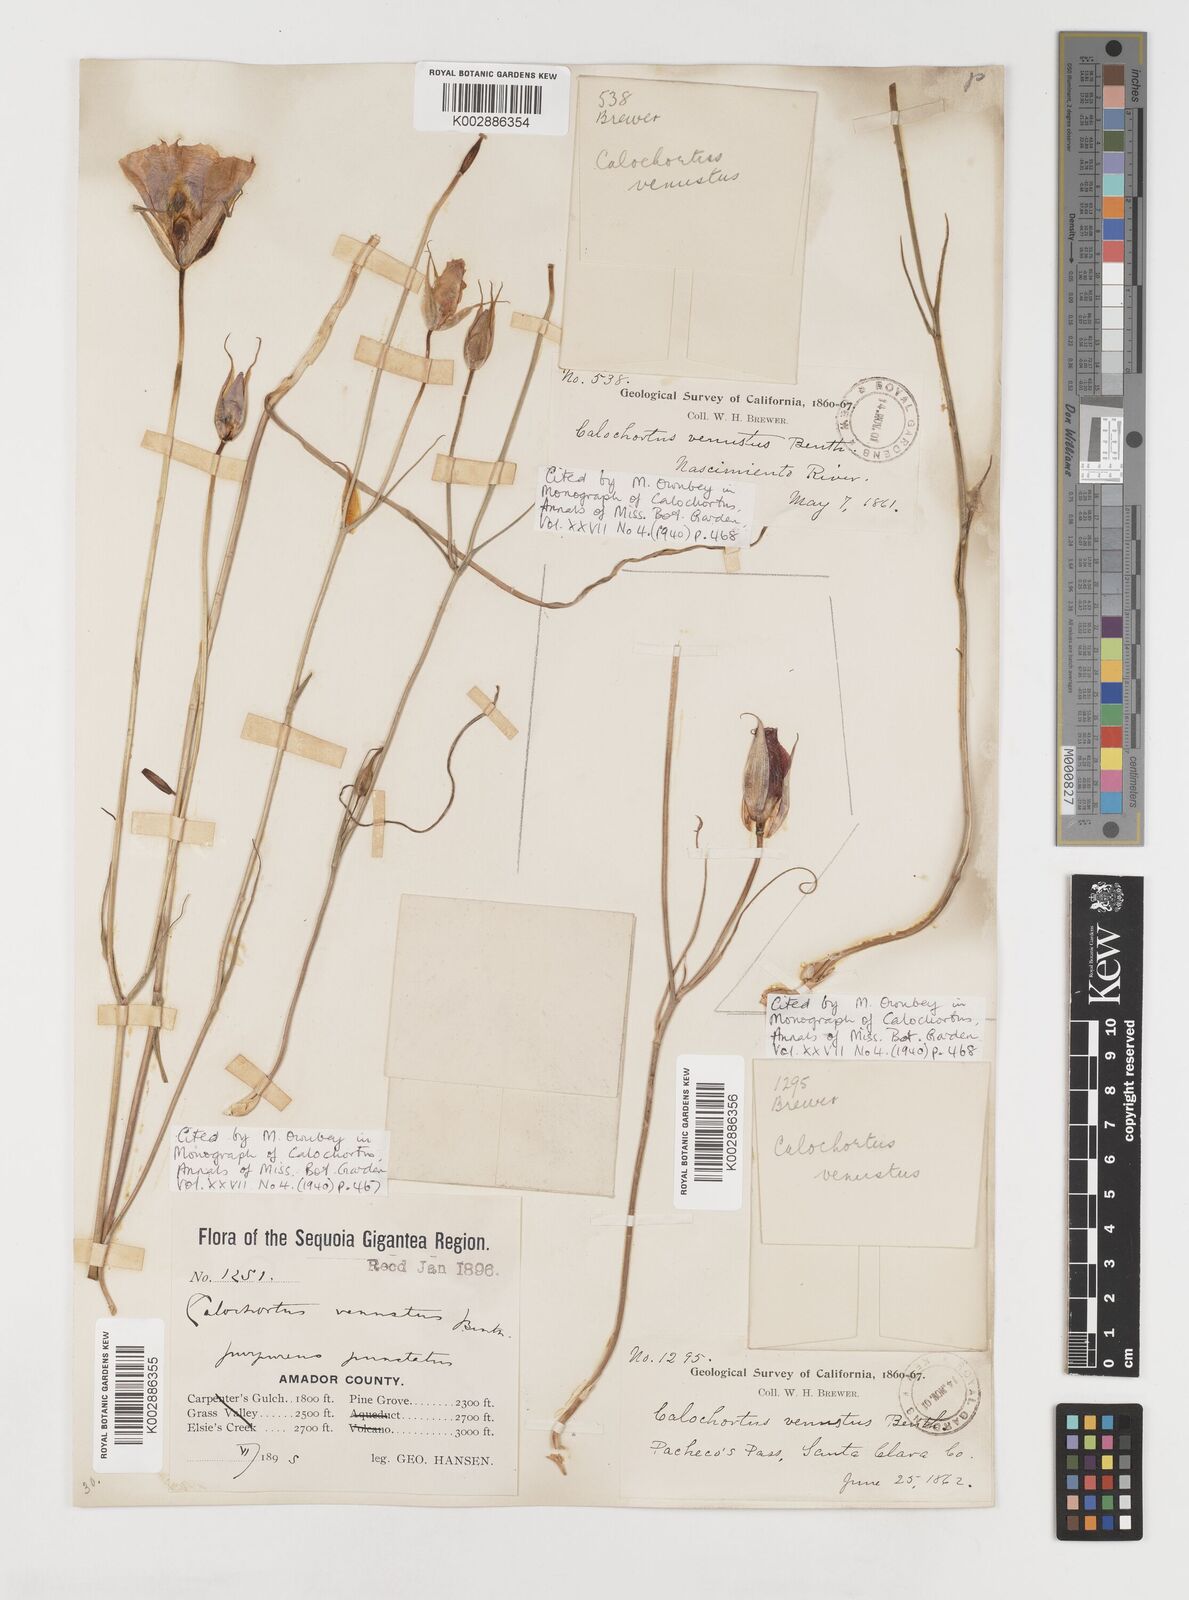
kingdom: Plantae
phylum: Tracheophyta
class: Liliopsida
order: Liliales
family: Liliaceae
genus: Calochortus
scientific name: Calochortus venustus
